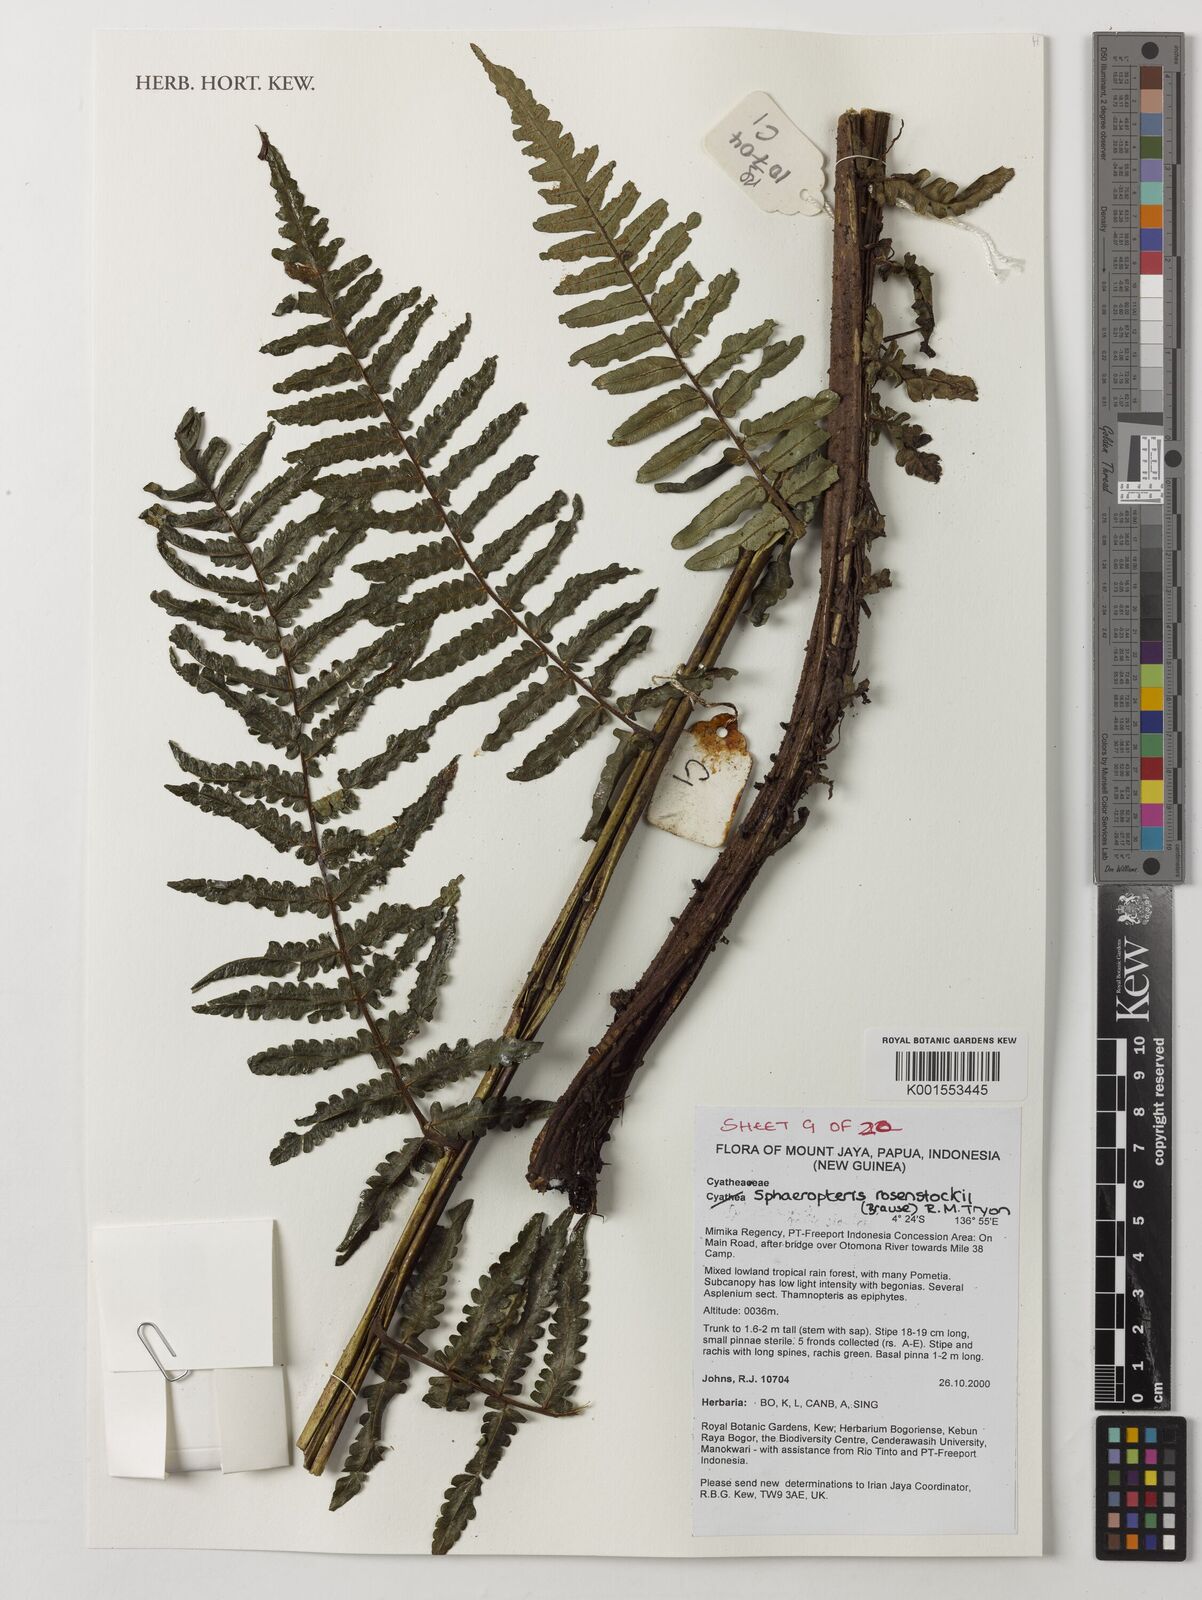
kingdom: Plantae
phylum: Tracheophyta
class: Polypodiopsida
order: Cyatheales
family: Cyatheaceae
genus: Sphaeropteris
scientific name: Sphaeropteris rosenstockii
